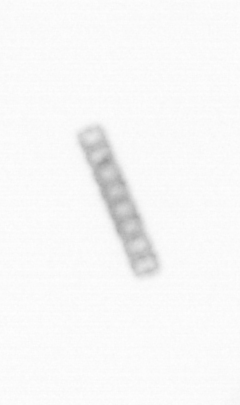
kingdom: Chromista
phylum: Ochrophyta
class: Bacillariophyceae
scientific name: Bacillariophyceae
